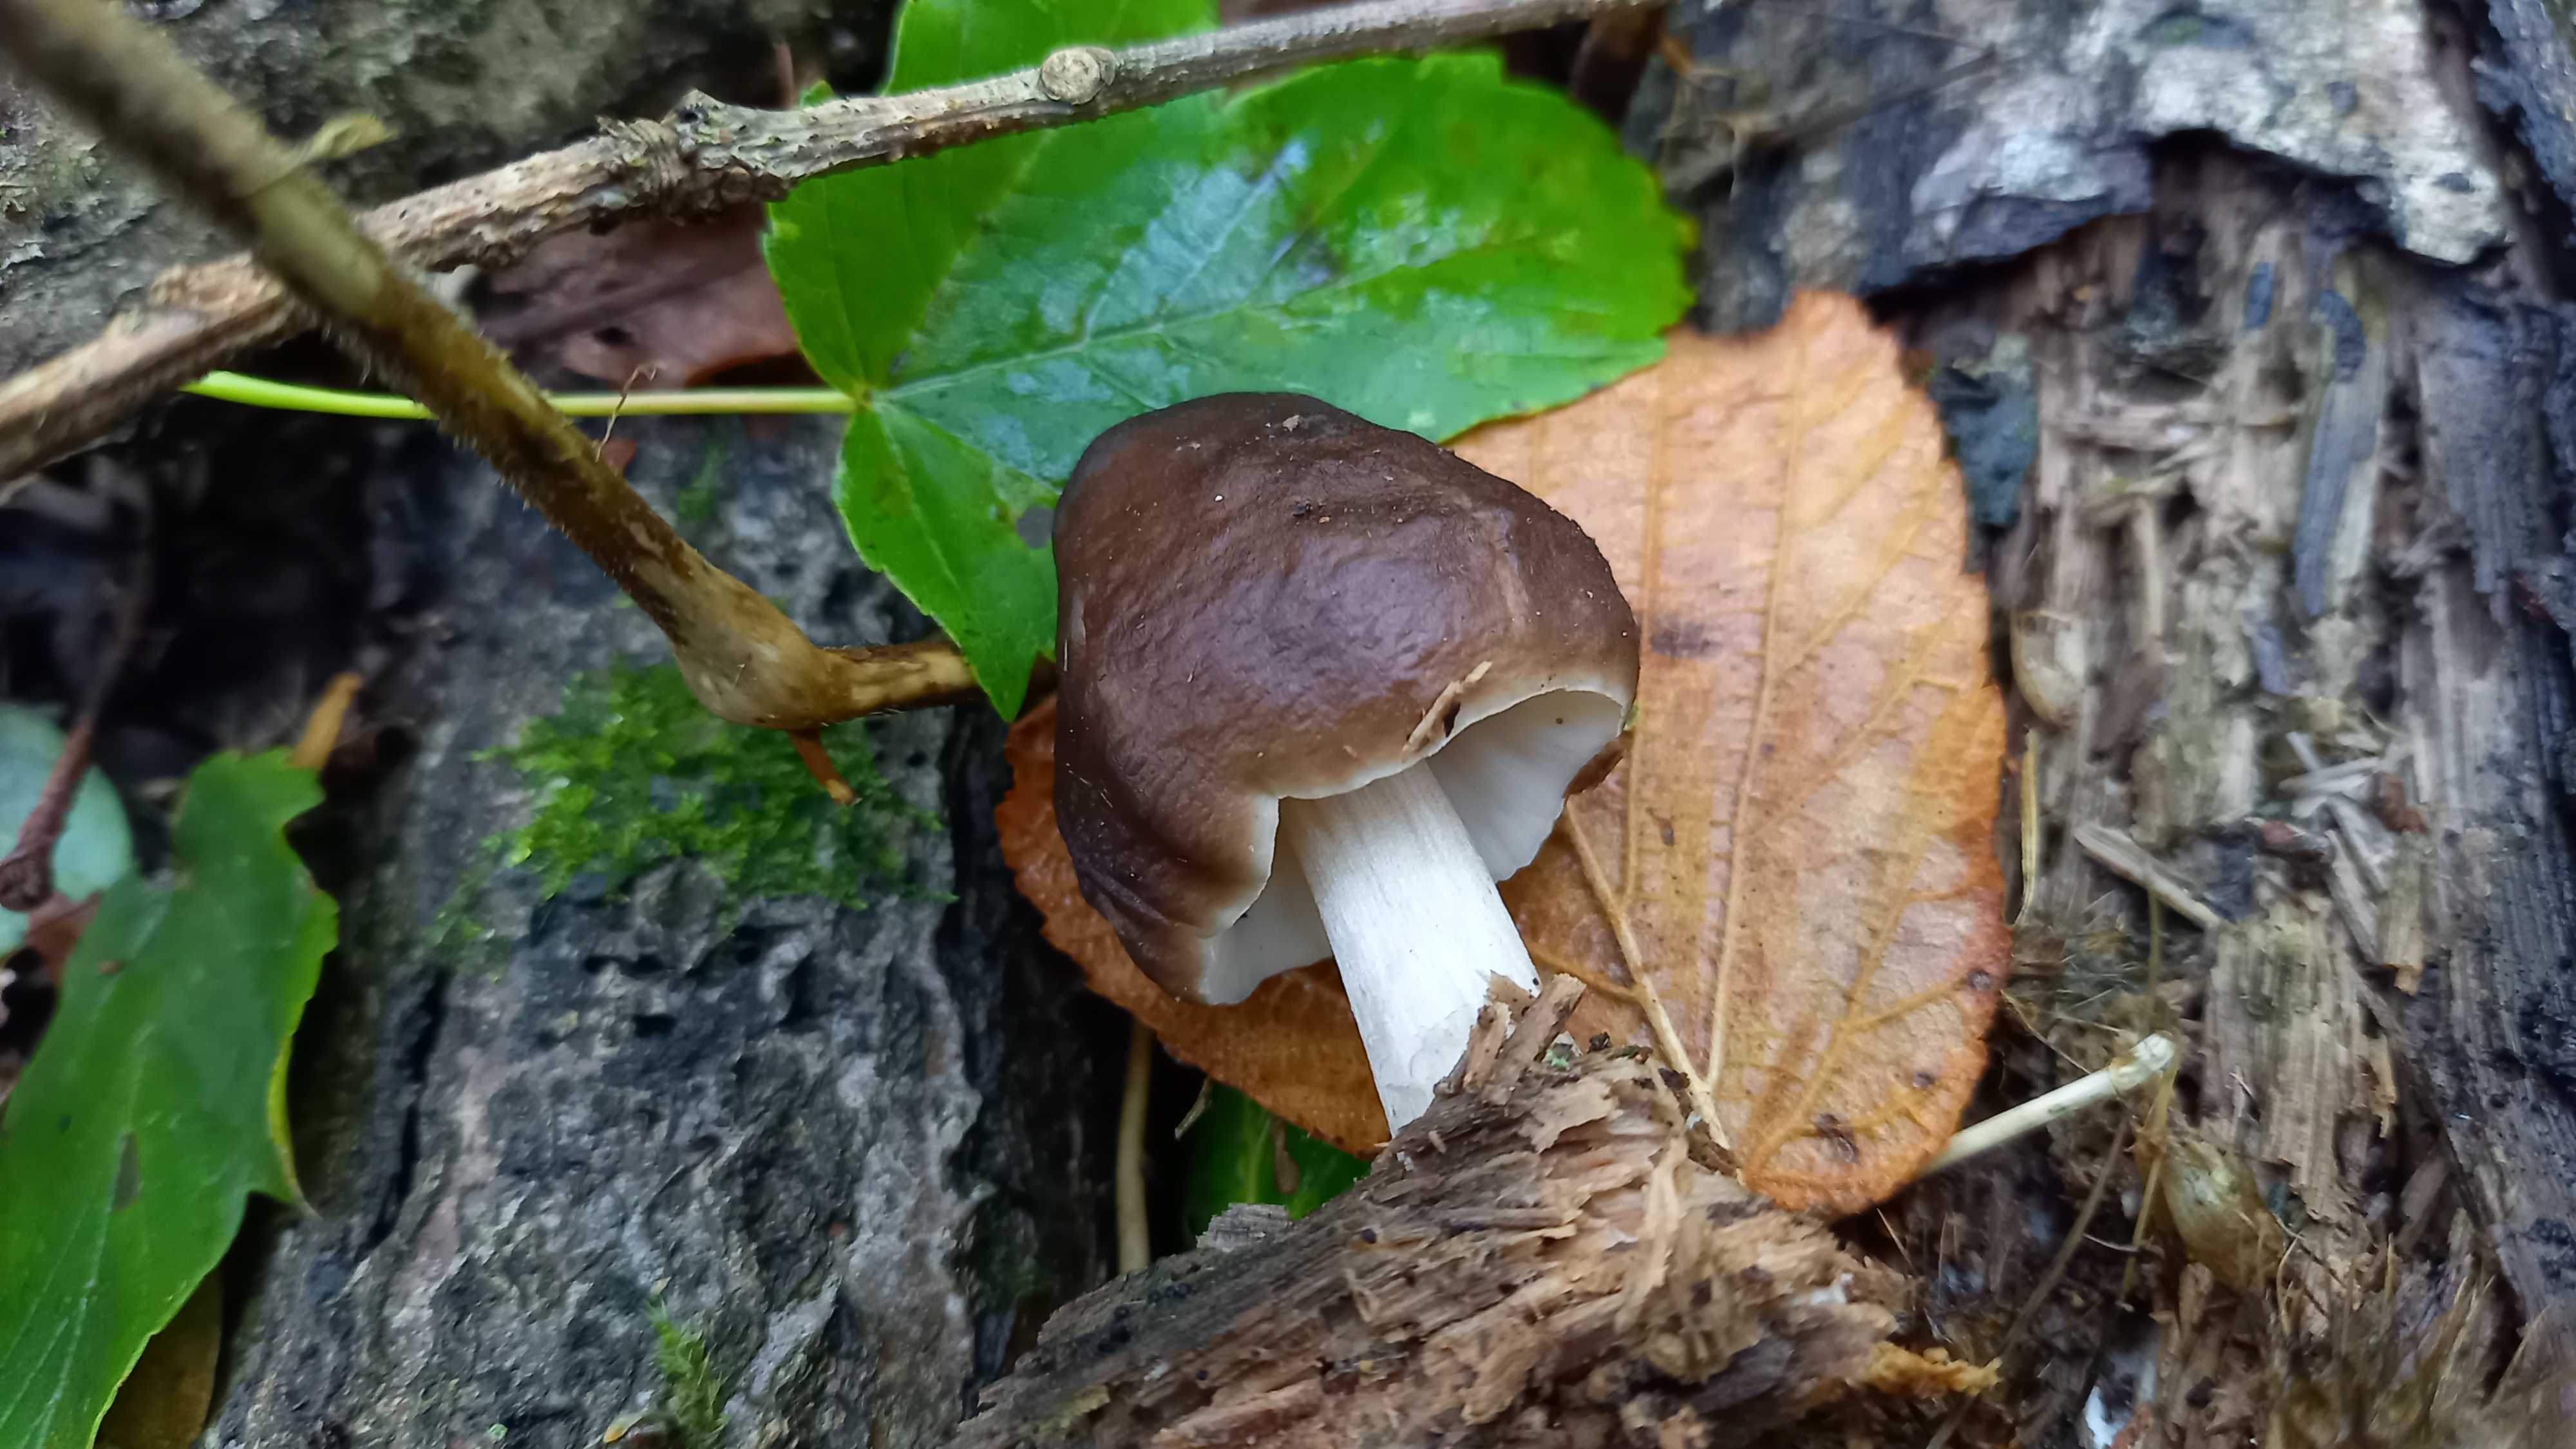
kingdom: Fungi
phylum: Basidiomycota
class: Agaricomycetes
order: Agaricales
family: Pluteaceae
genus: Pluteus
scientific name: Pluteus cervinus
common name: sodfarvet skærmhat
